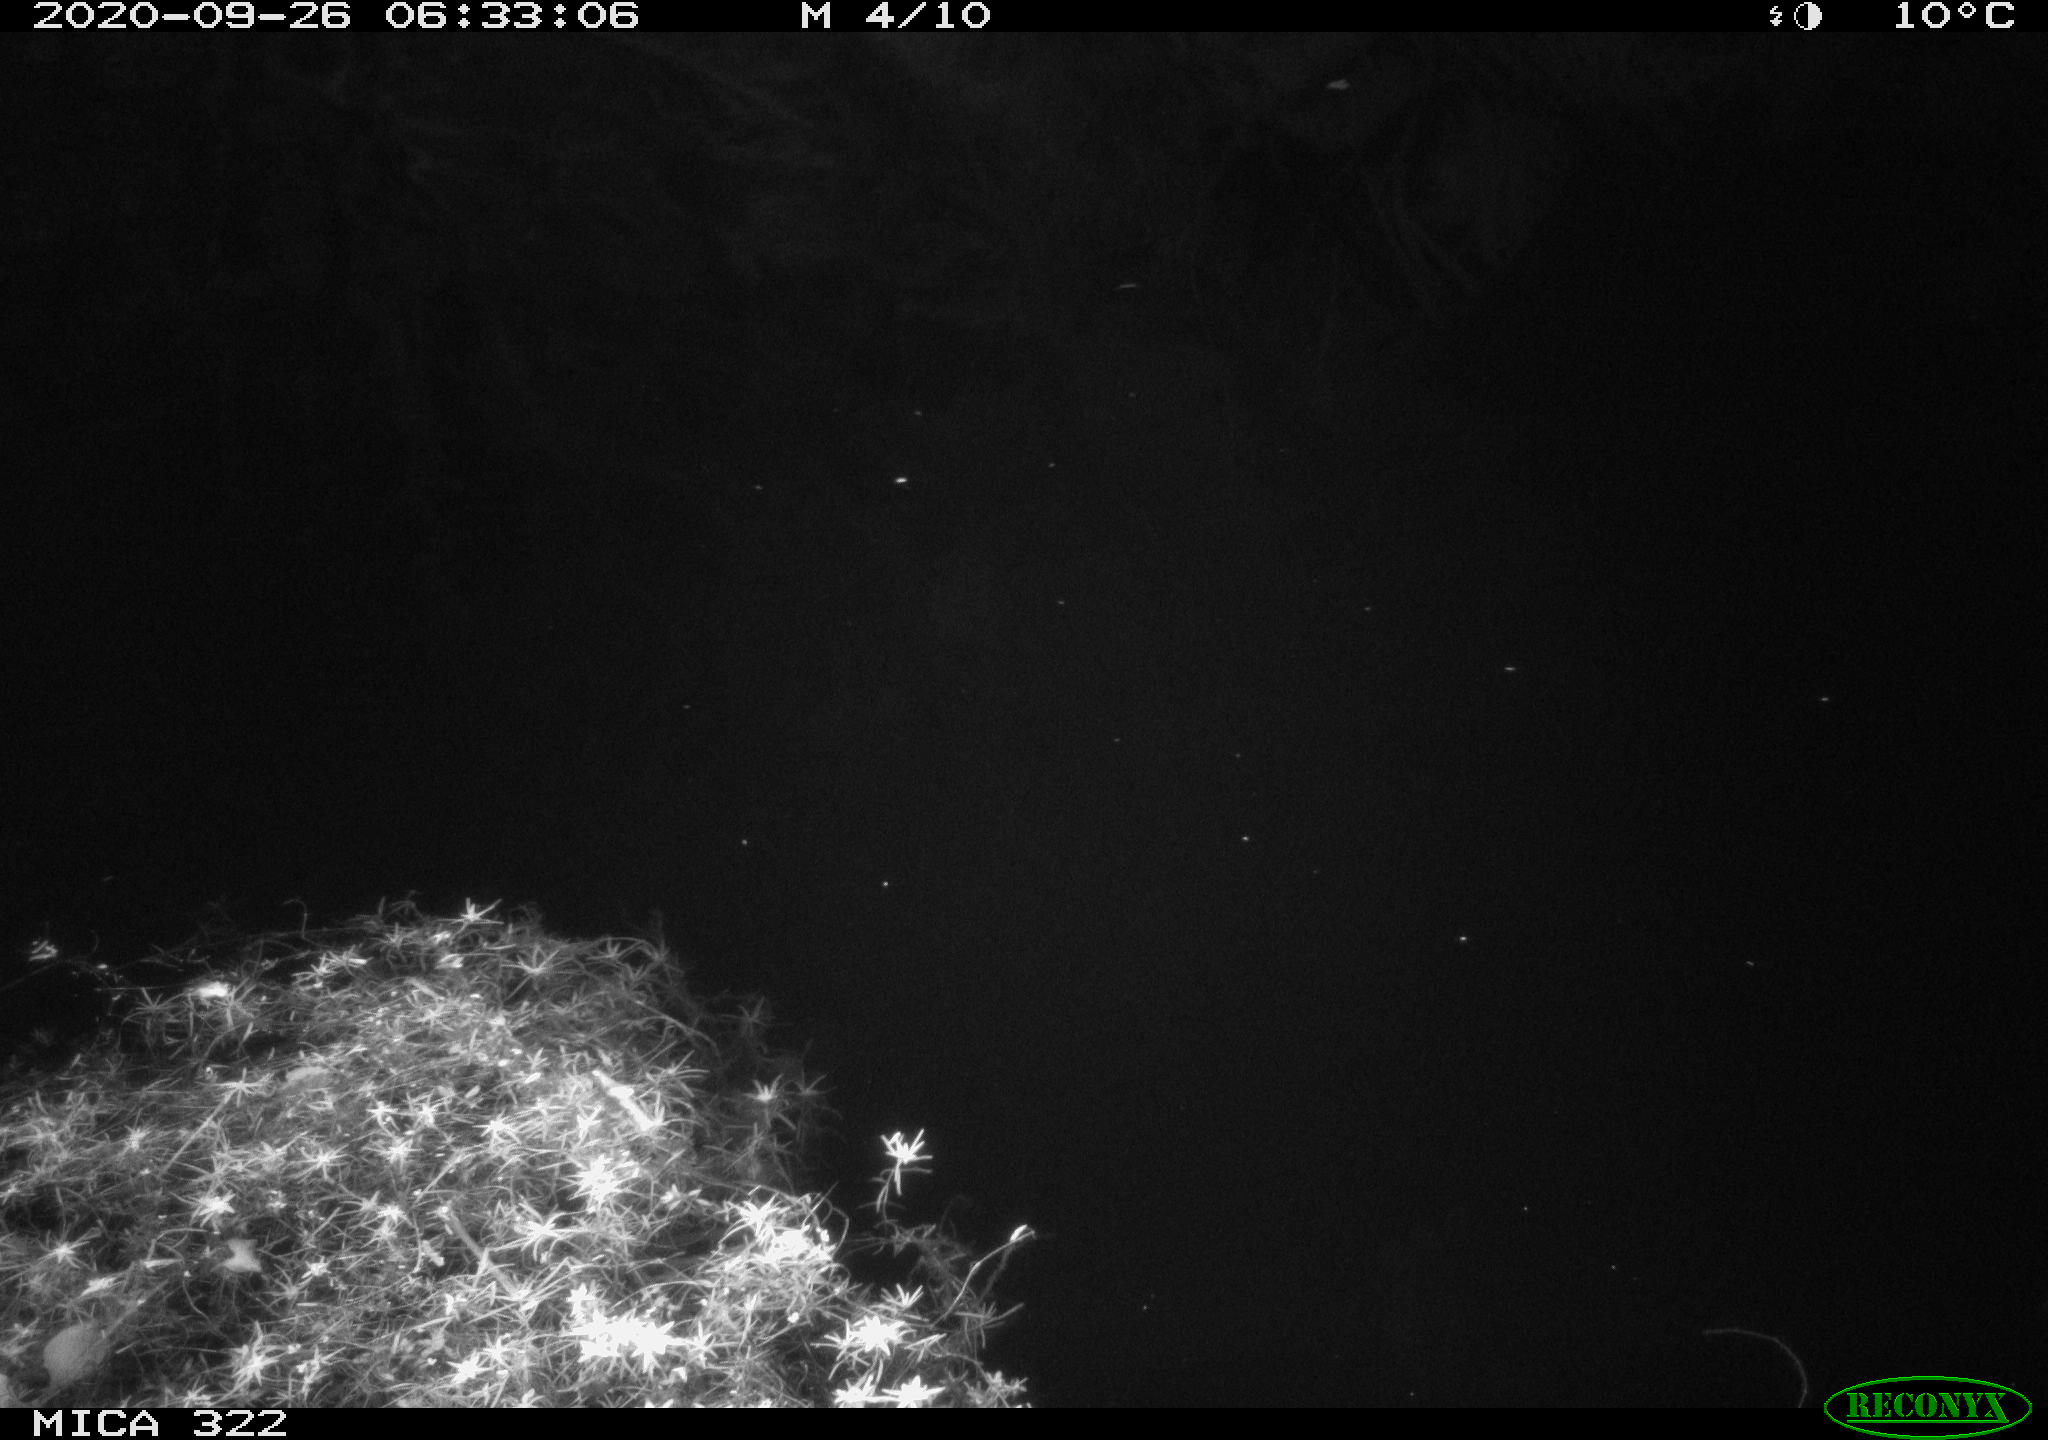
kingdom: Animalia
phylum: Chordata
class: Aves
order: Anseriformes
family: Anatidae
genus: Anas
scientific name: Anas platyrhynchos
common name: Mallard
